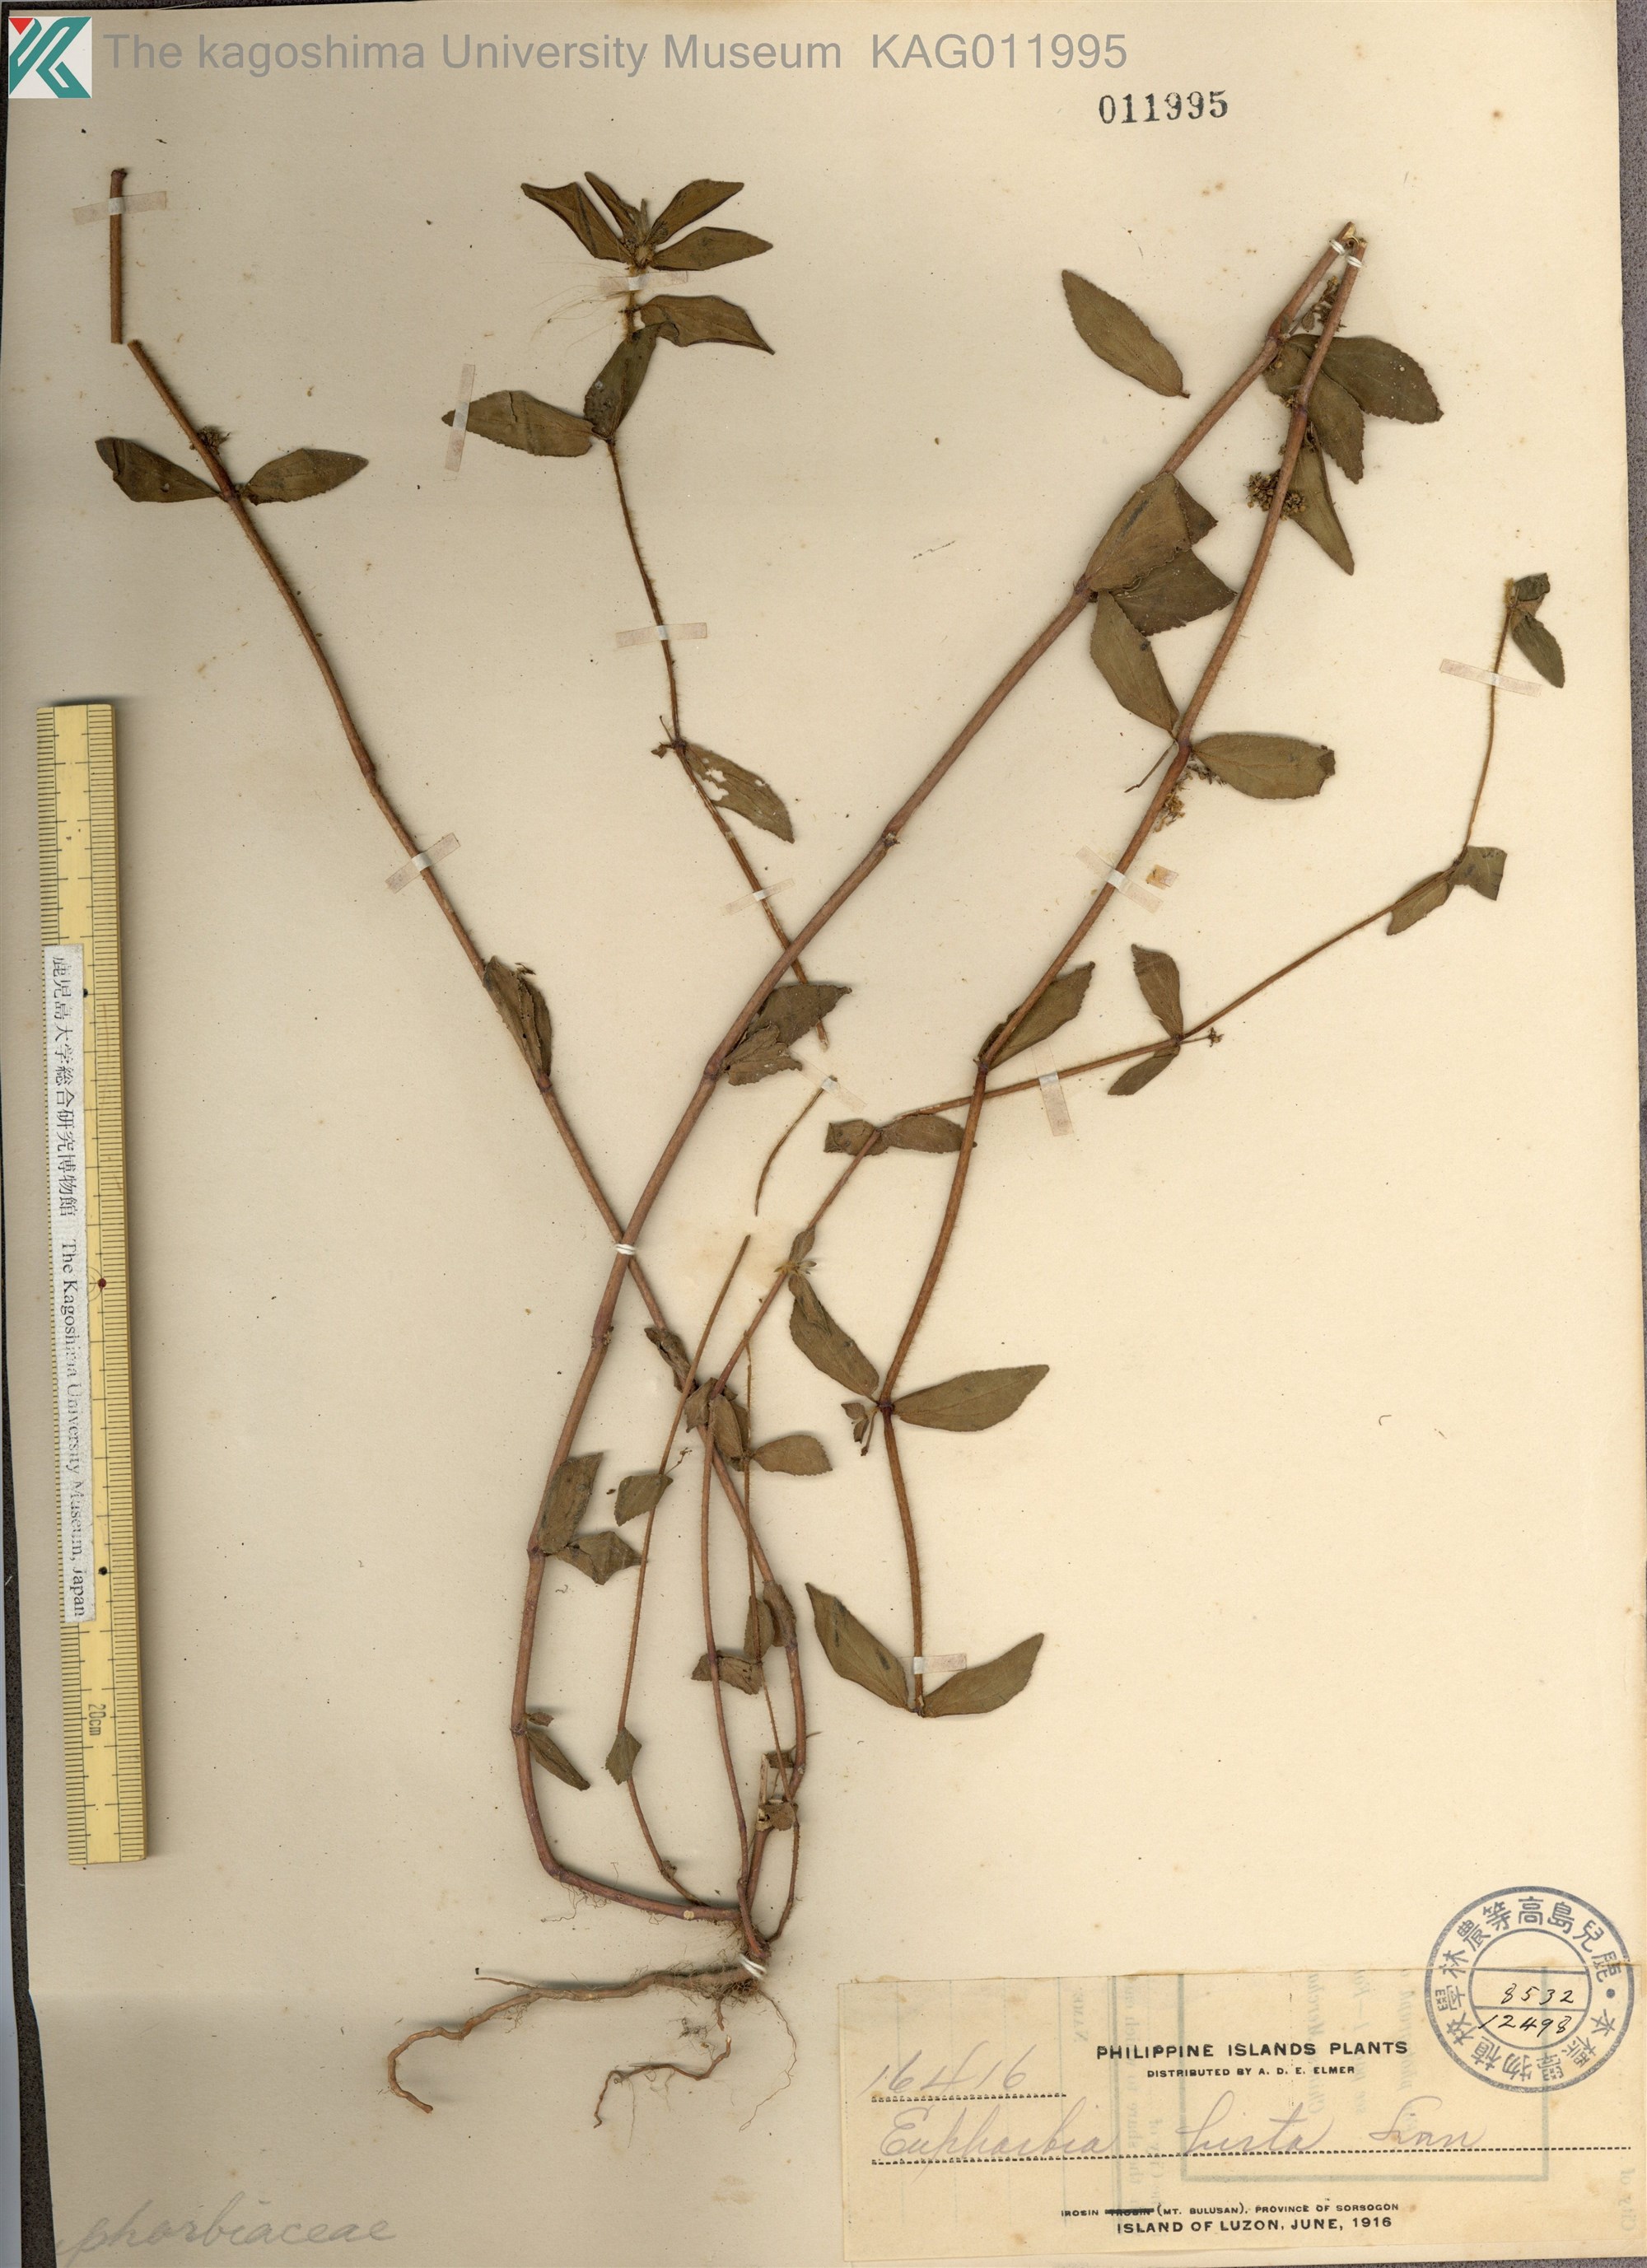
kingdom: Plantae
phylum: Tracheophyta
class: Magnoliopsida
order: Malpighiales
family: Euphorbiaceae
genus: Euphorbia
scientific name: Euphorbia hirta
